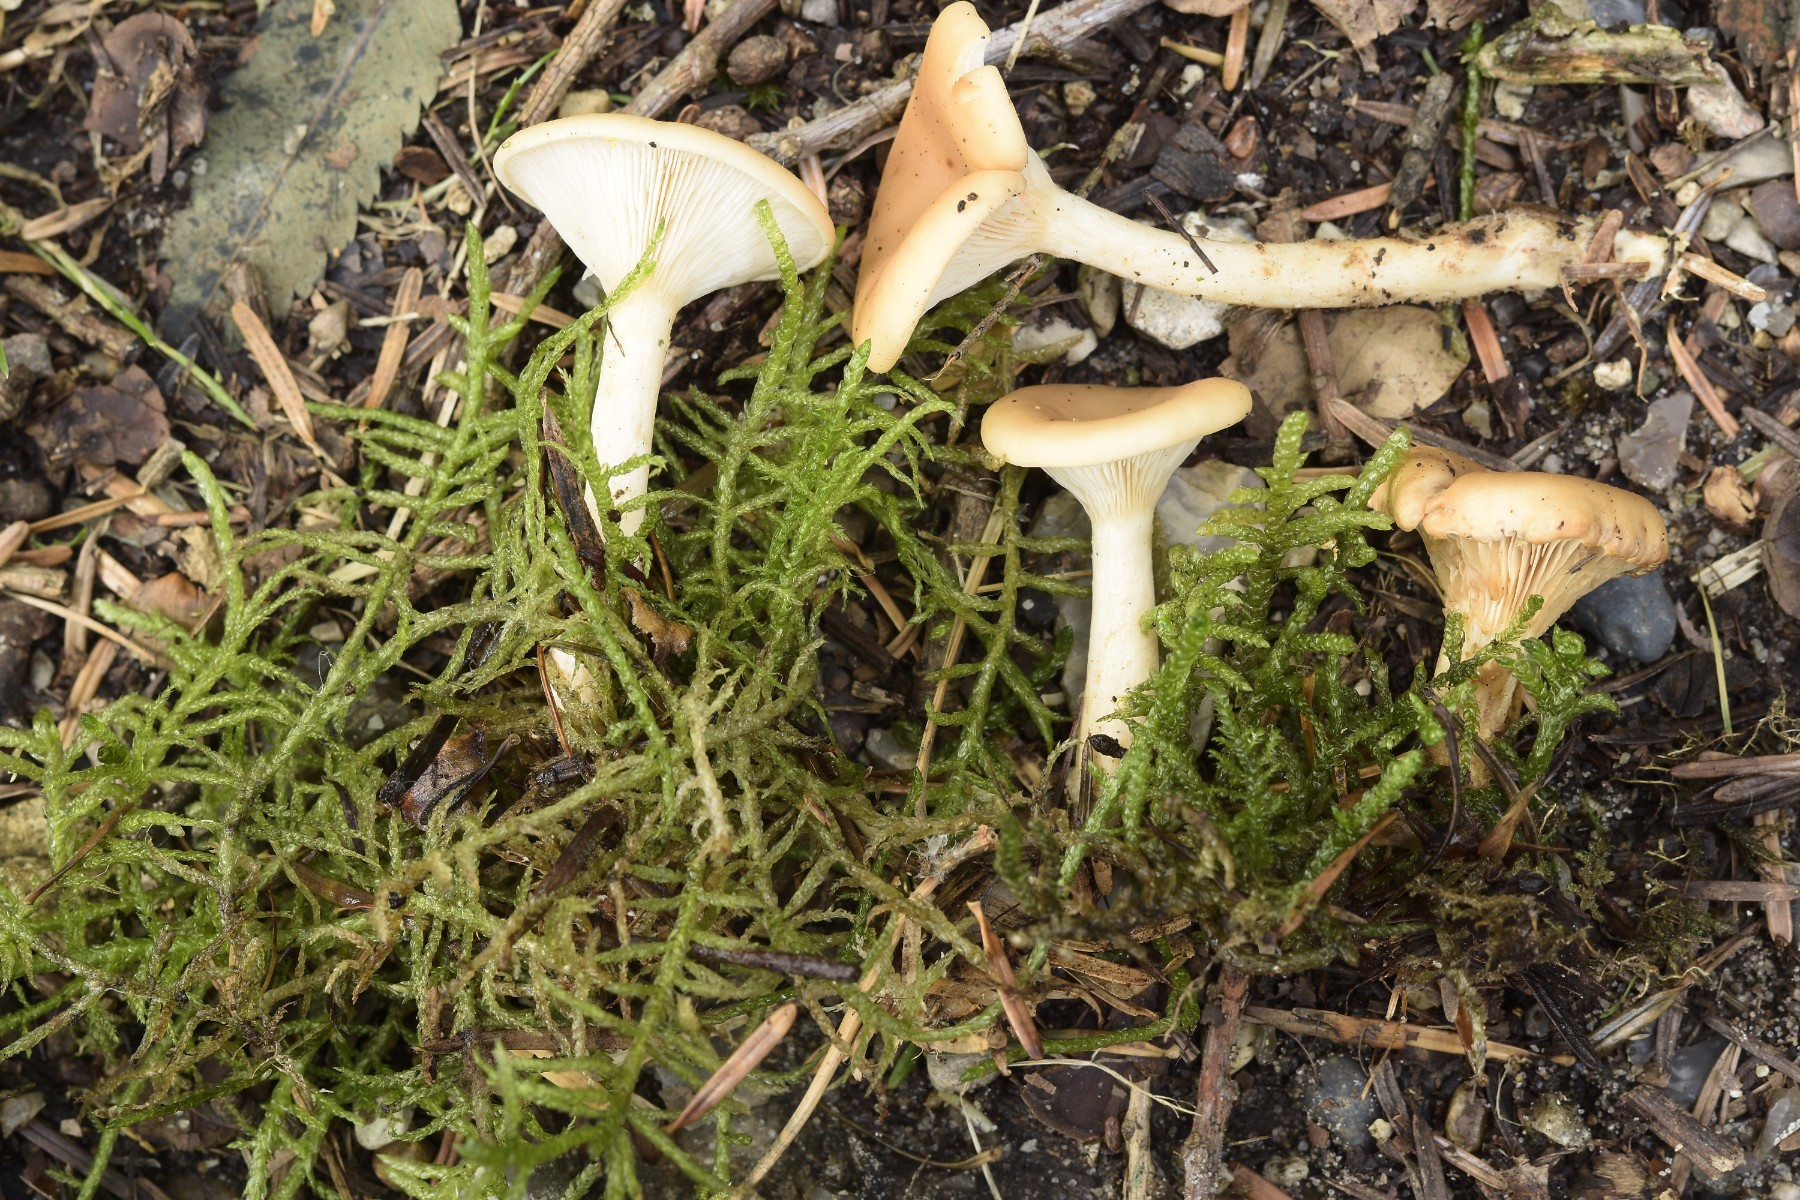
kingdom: Fungi
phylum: Basidiomycota
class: Agaricomycetes
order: Agaricales
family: Tricholomataceae
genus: Infundibulicybe
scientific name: Infundibulicybe gibba
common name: almindelig tragthat
